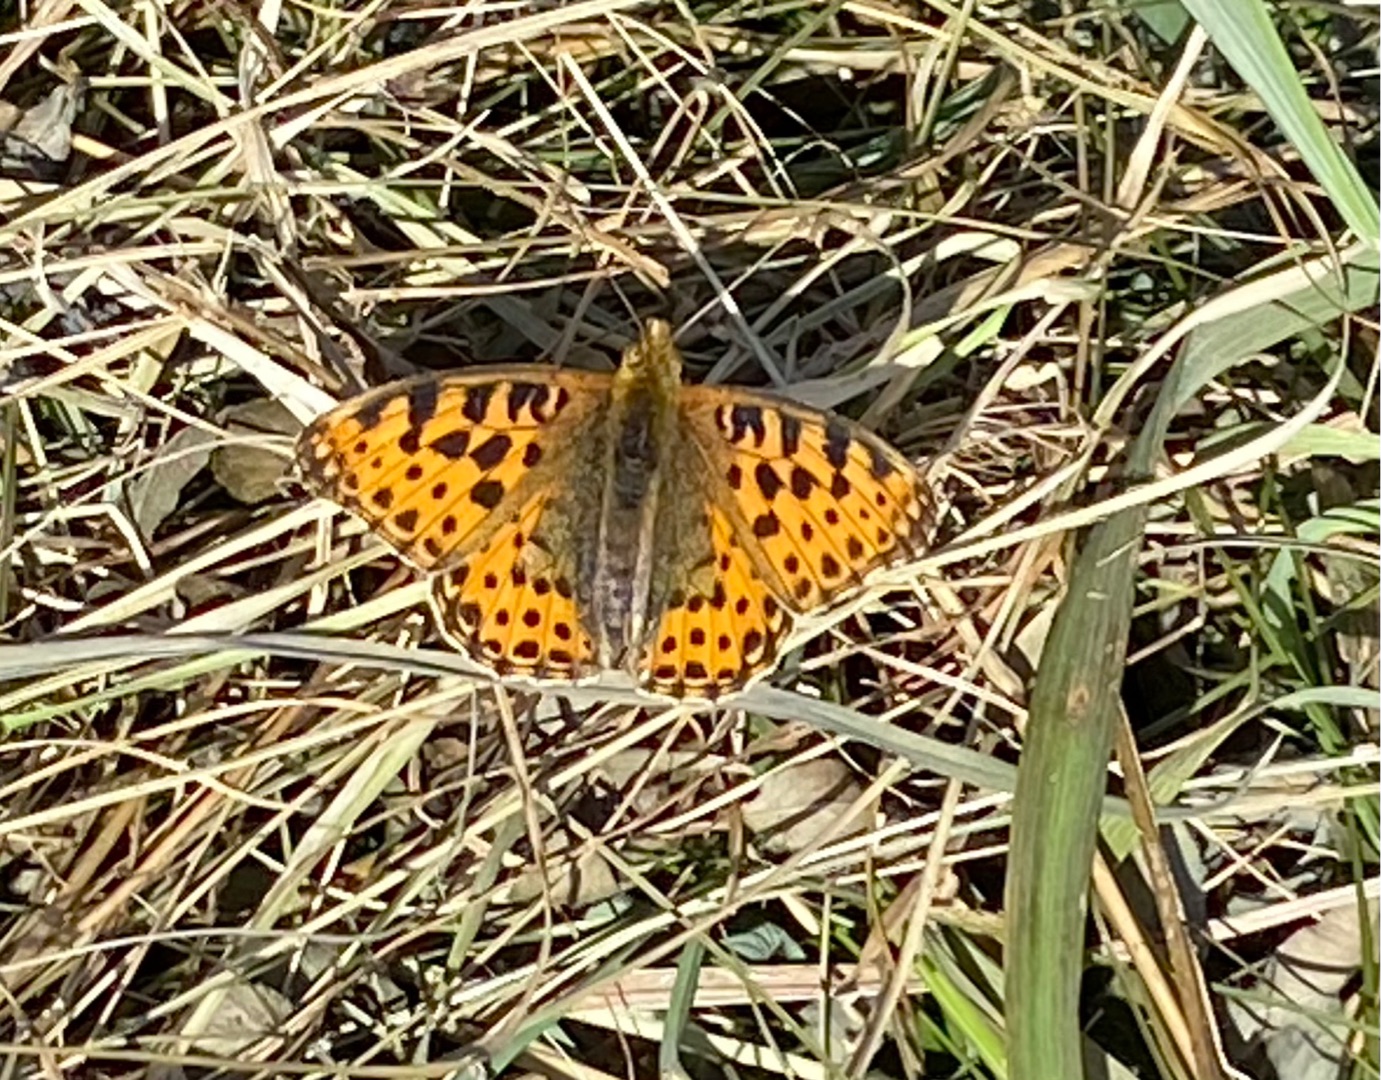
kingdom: Animalia
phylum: Arthropoda
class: Insecta
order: Lepidoptera
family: Nymphalidae
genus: Issoria
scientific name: Issoria lathonia
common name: Storplettet perlemorsommerfugl
